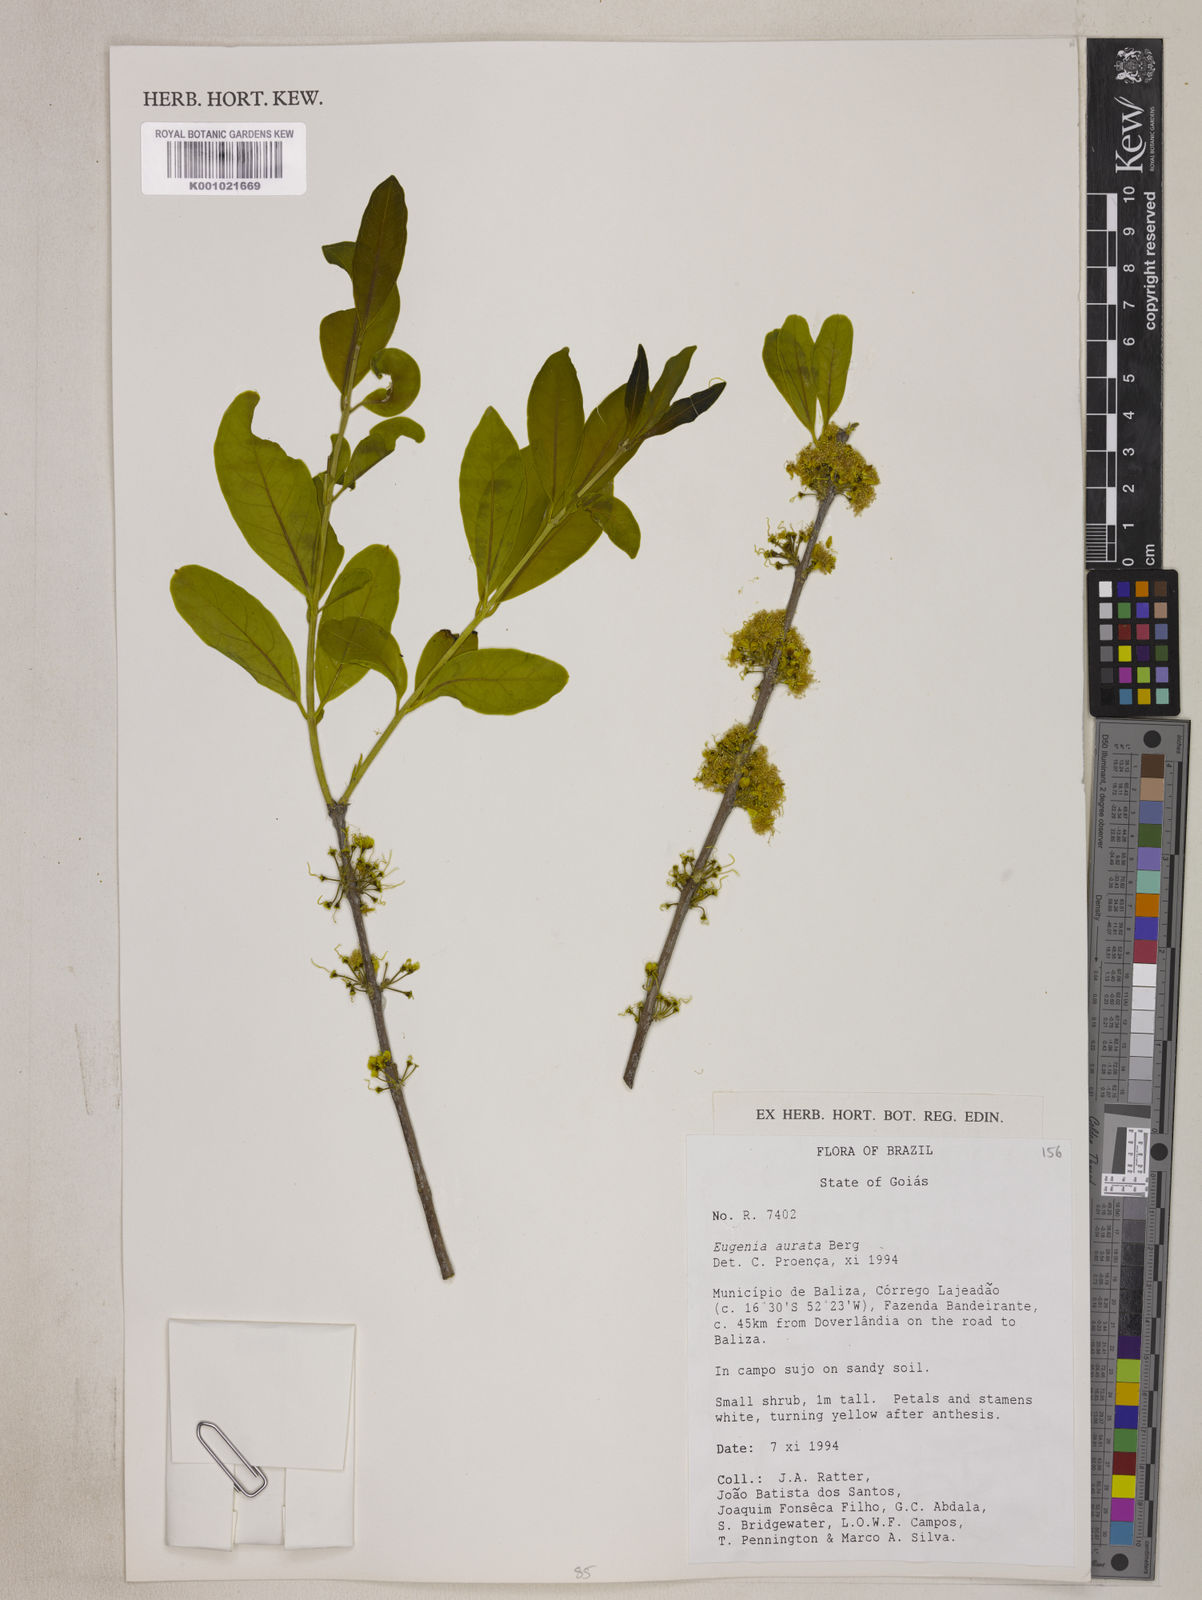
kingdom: Plantae
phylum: Tracheophyta
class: Magnoliopsida
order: Myrtales
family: Myrtaceae
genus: Eugenia
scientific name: Eugenia aurata
